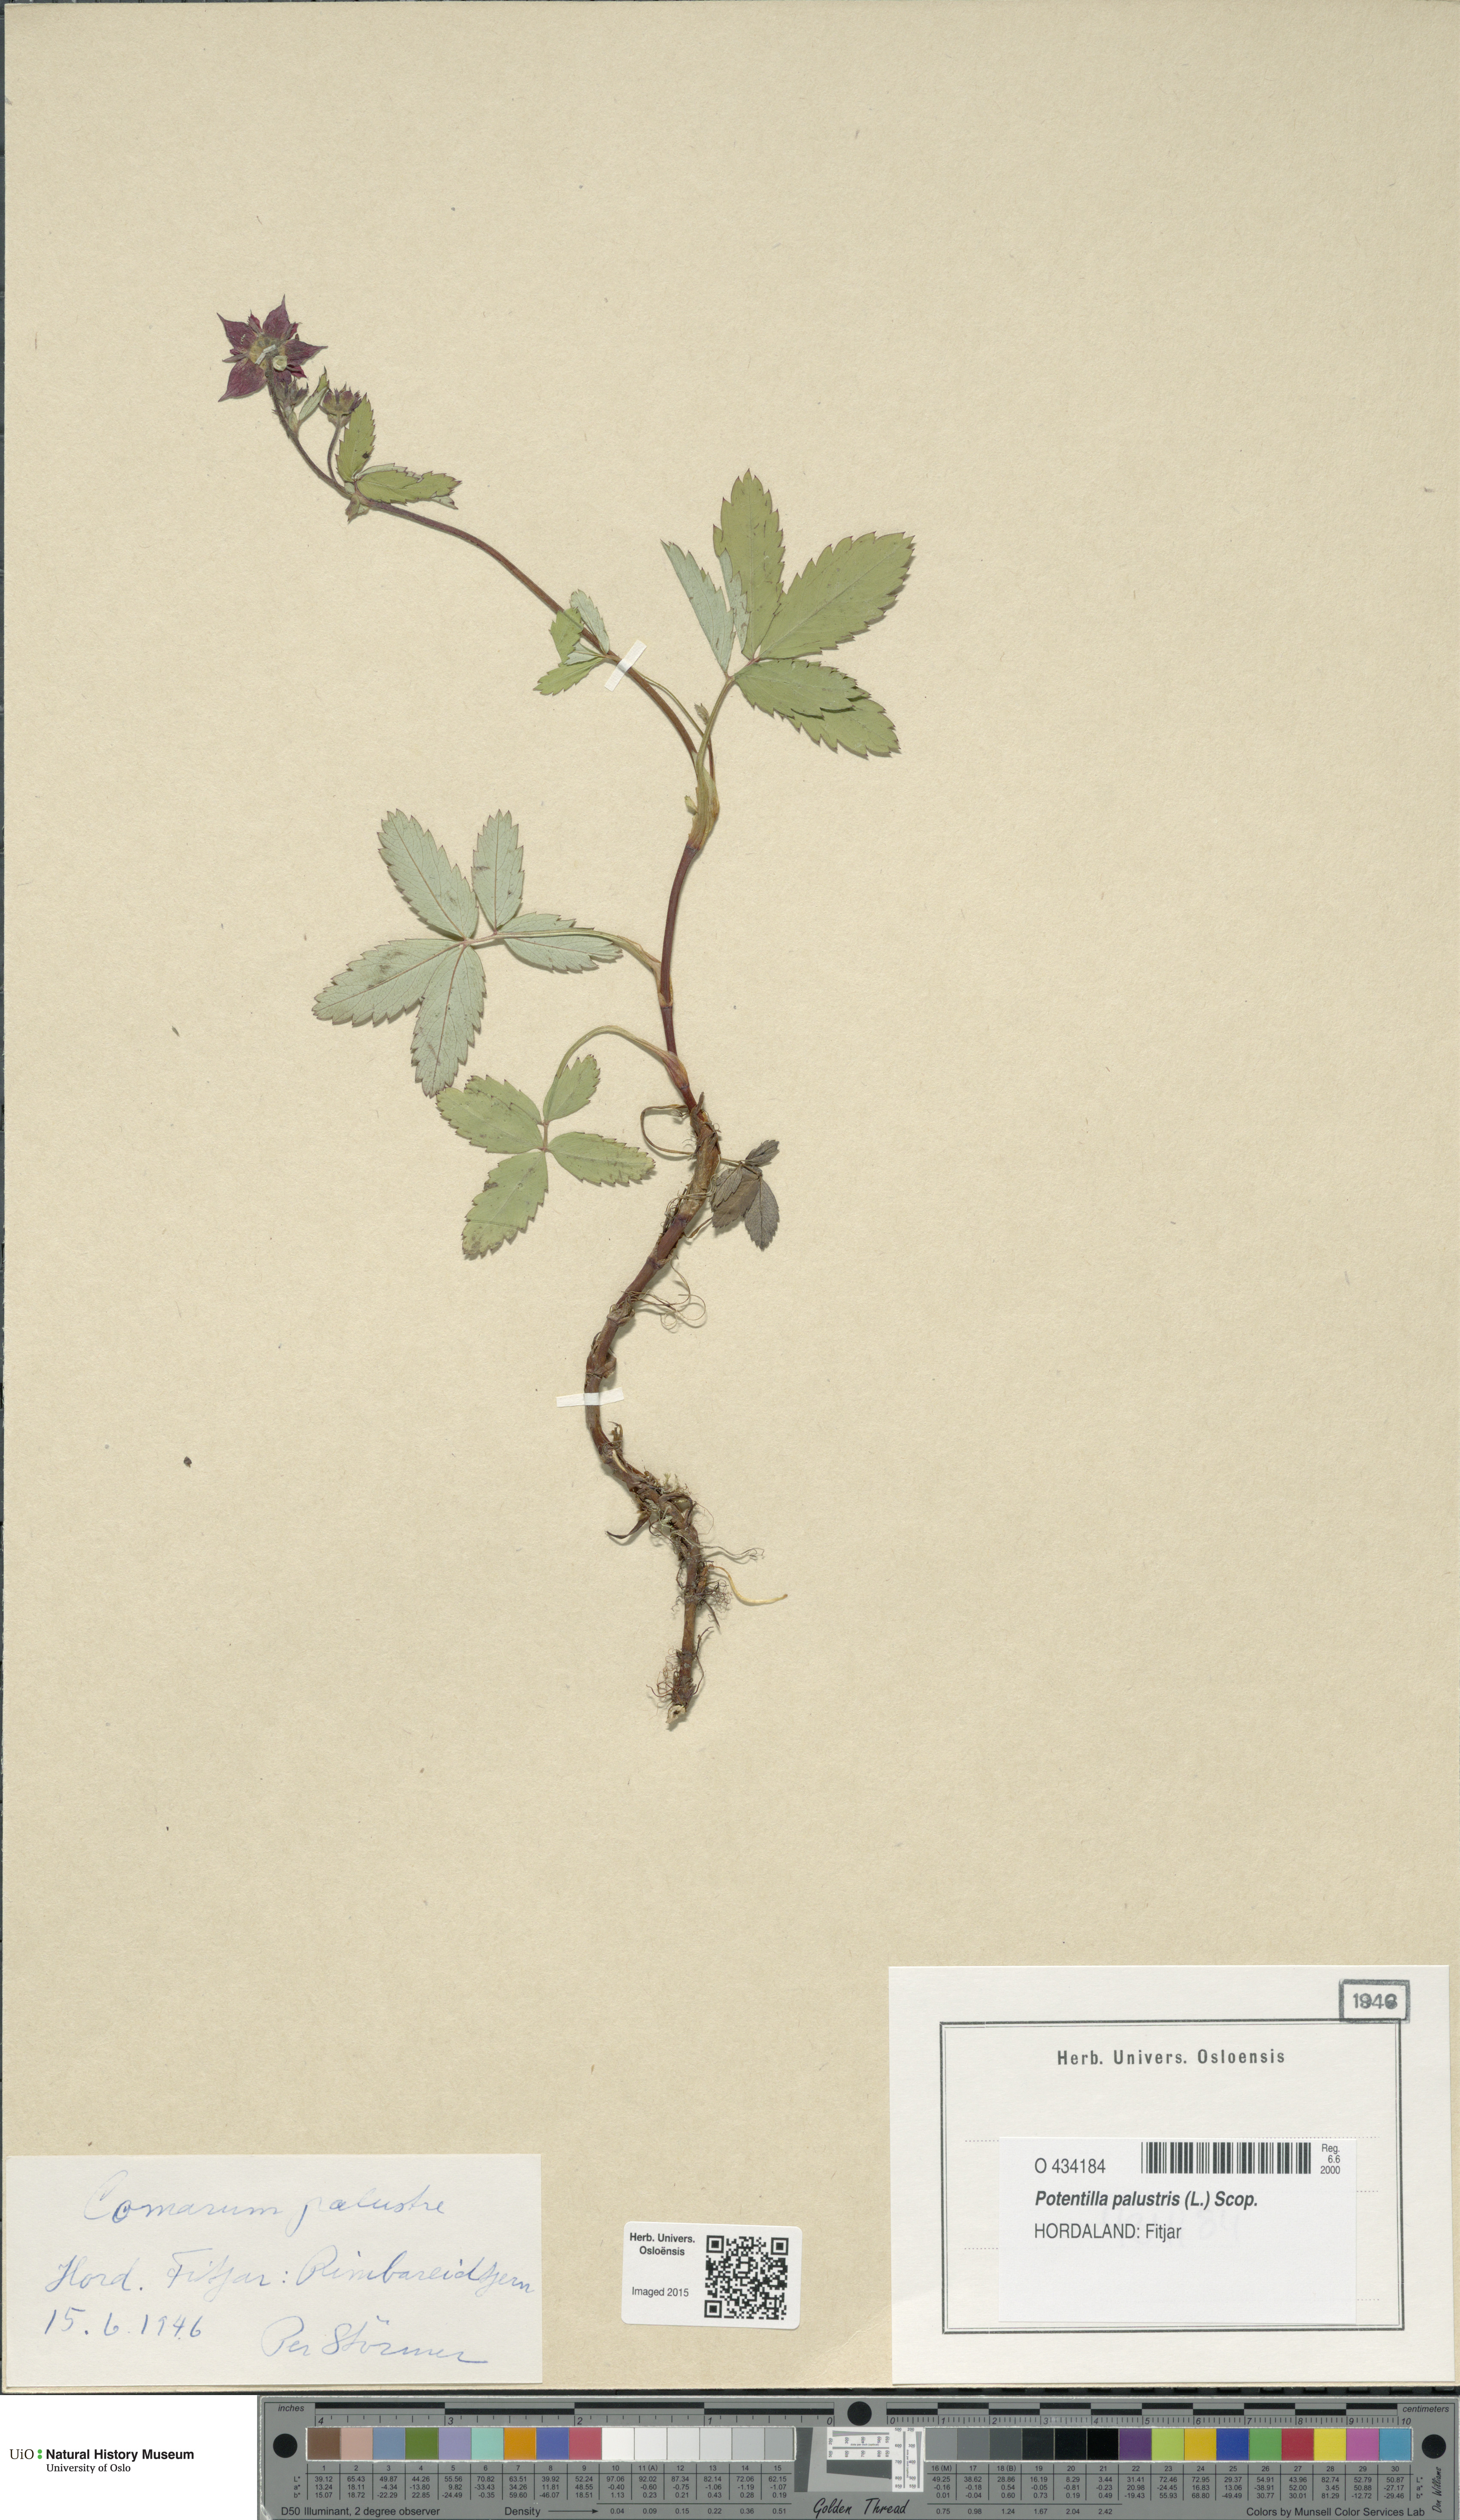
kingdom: Plantae
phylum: Tracheophyta
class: Magnoliopsida
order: Rosales
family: Rosaceae
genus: Comarum
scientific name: Comarum palustre
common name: Marsh cinquefoil
